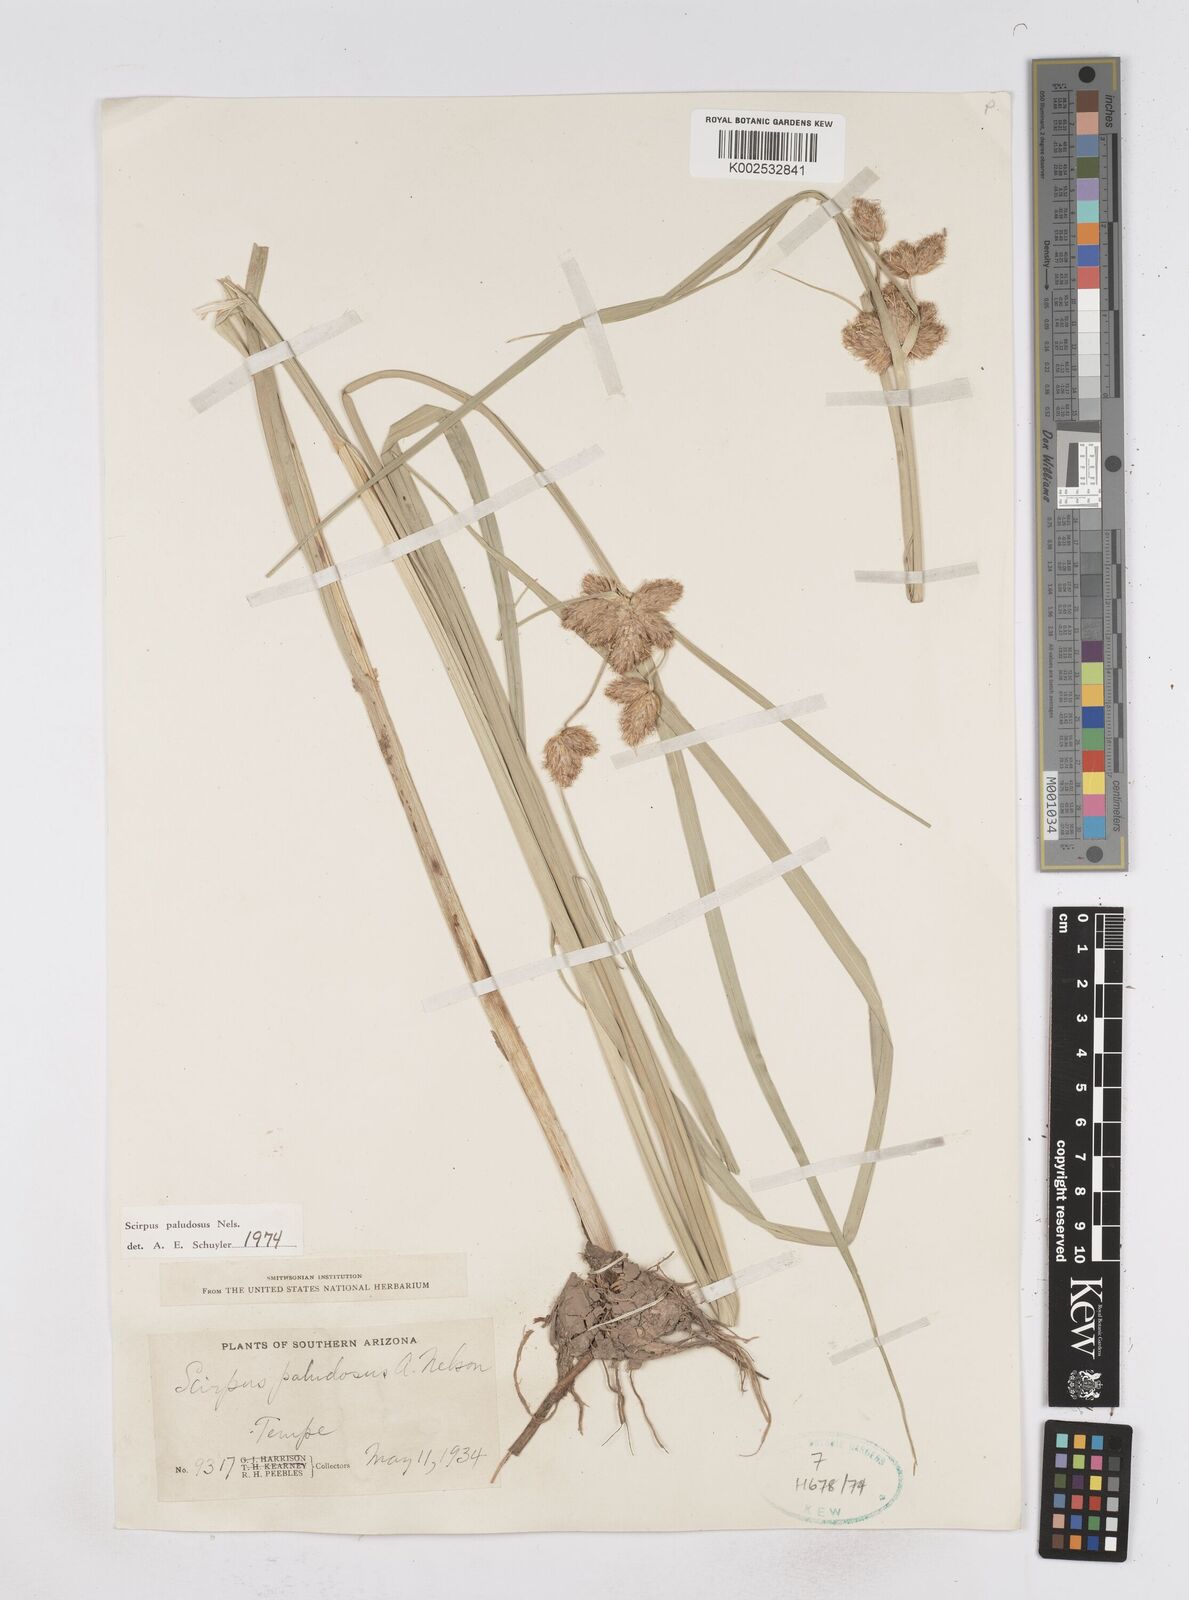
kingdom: Plantae
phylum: Tracheophyta
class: Liliopsida
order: Poales
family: Cyperaceae
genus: Bolboschoenus
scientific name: Bolboschoenus maritimus
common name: Sea club-rush
